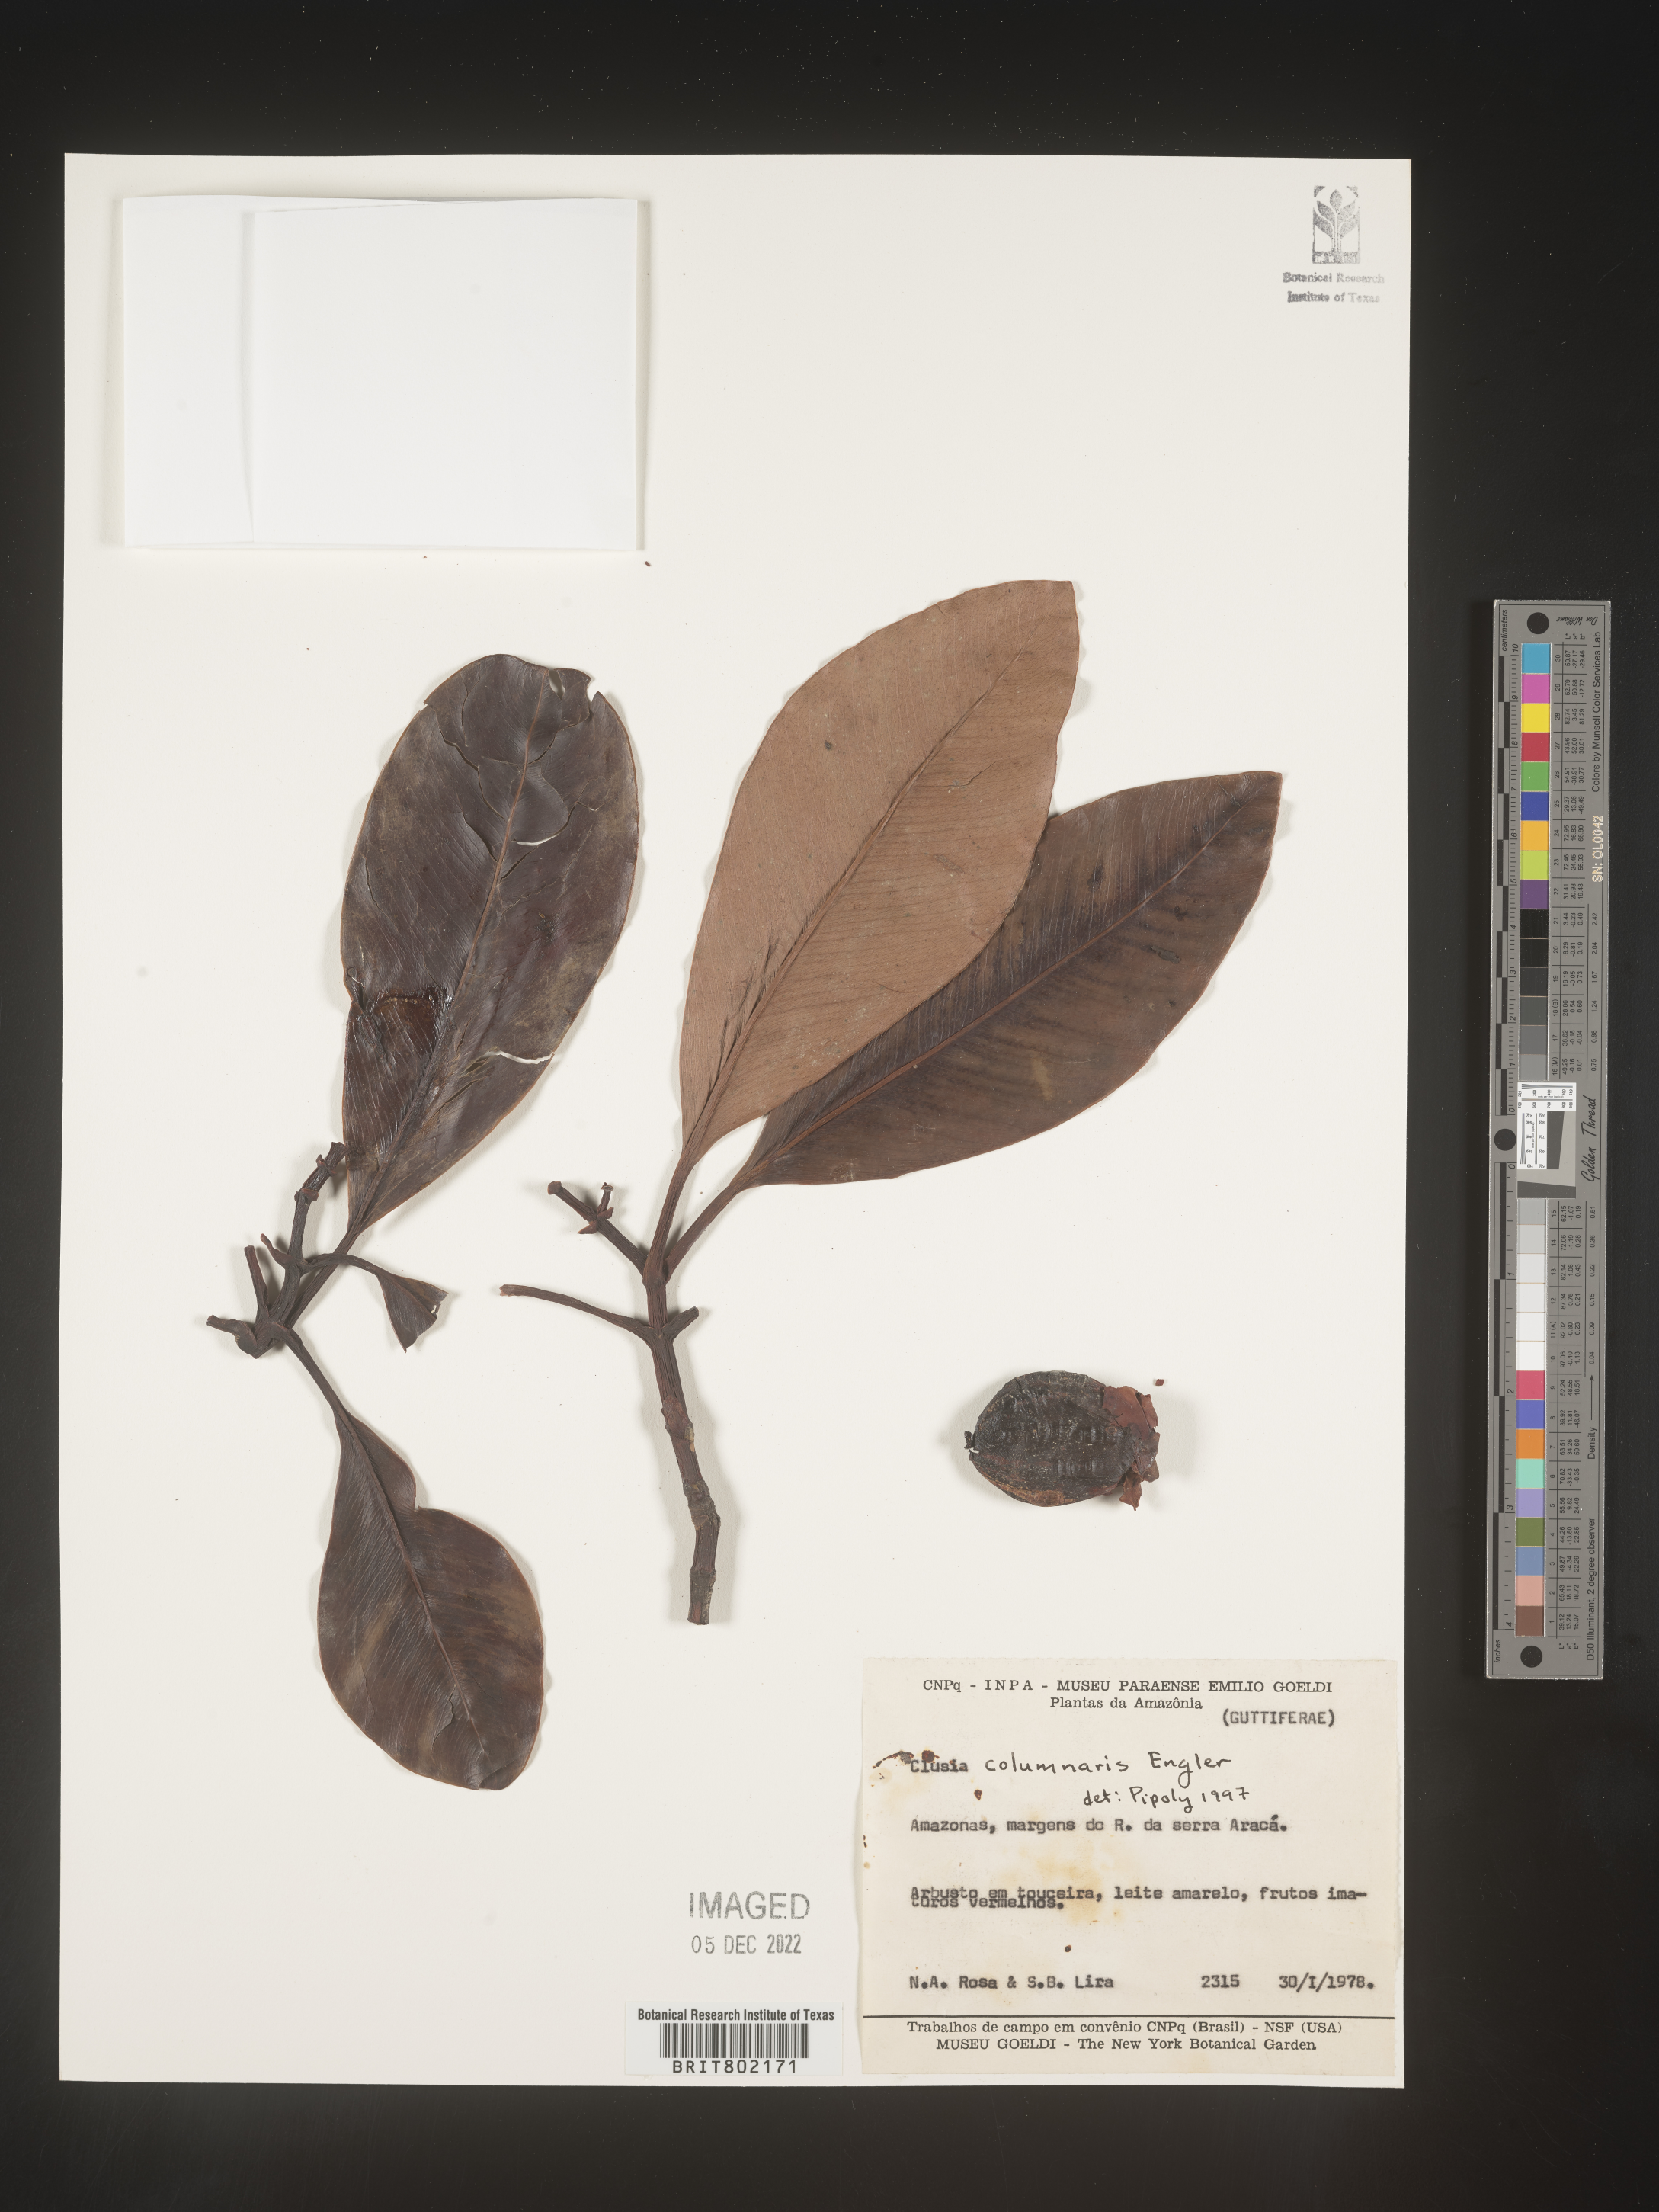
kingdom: Plantae
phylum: Tracheophyta
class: Magnoliopsida
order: Malpighiales
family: Clusiaceae
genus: Clusia
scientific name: Clusia columnaris
